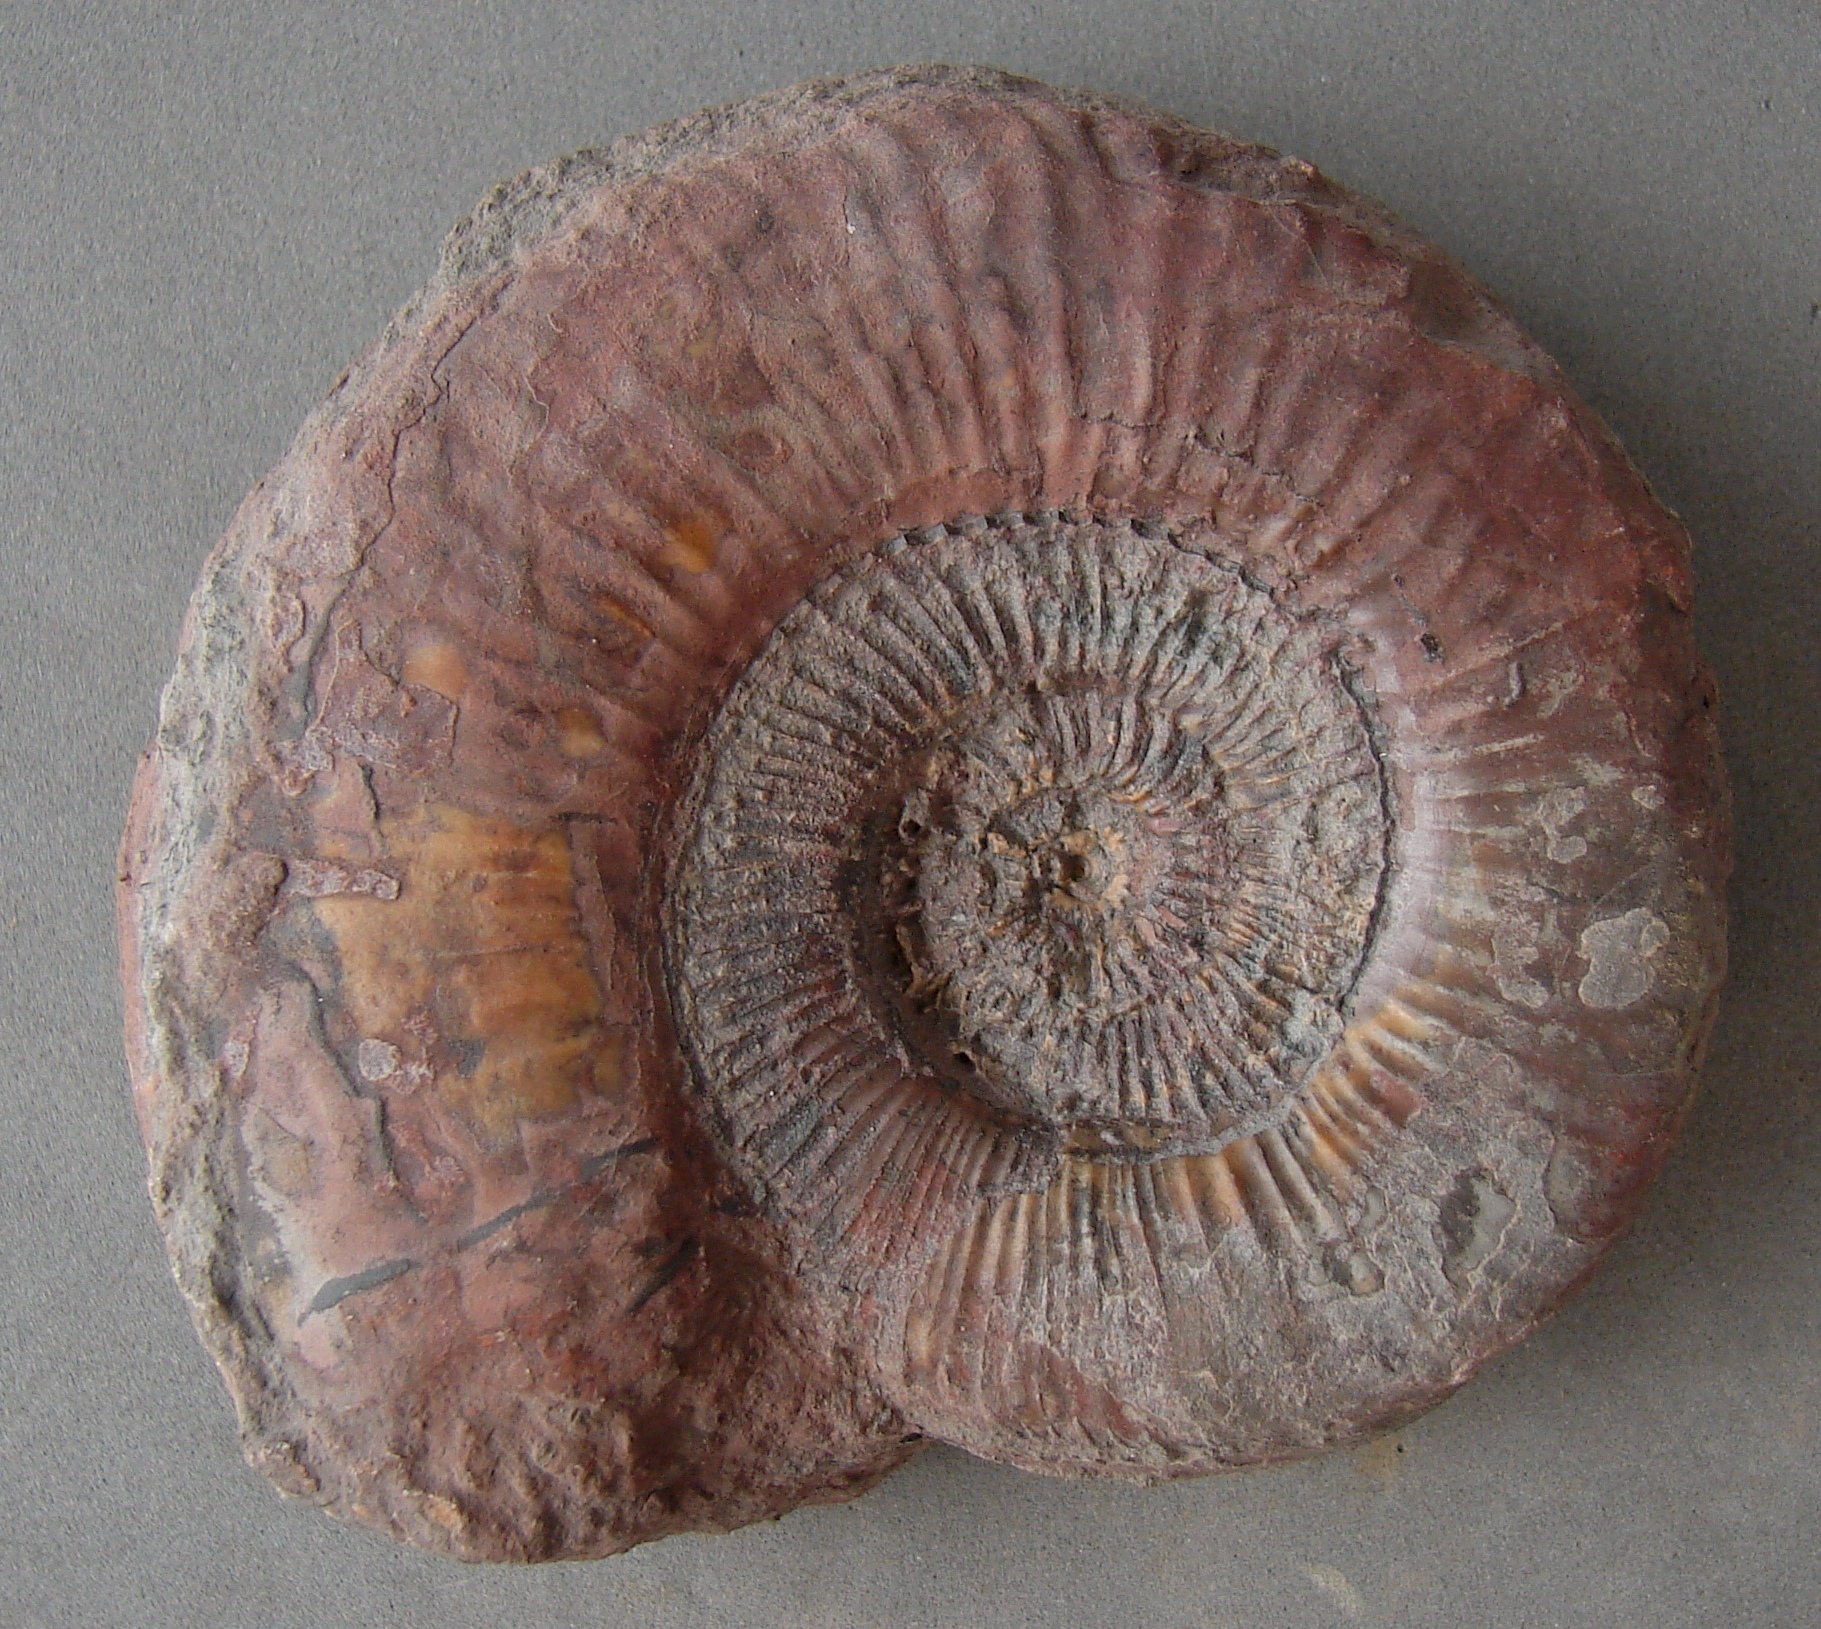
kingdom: Animalia
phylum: Mollusca
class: Cephalopoda
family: Hildoceratidae
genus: Dumortieria
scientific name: Dumortieria radians
